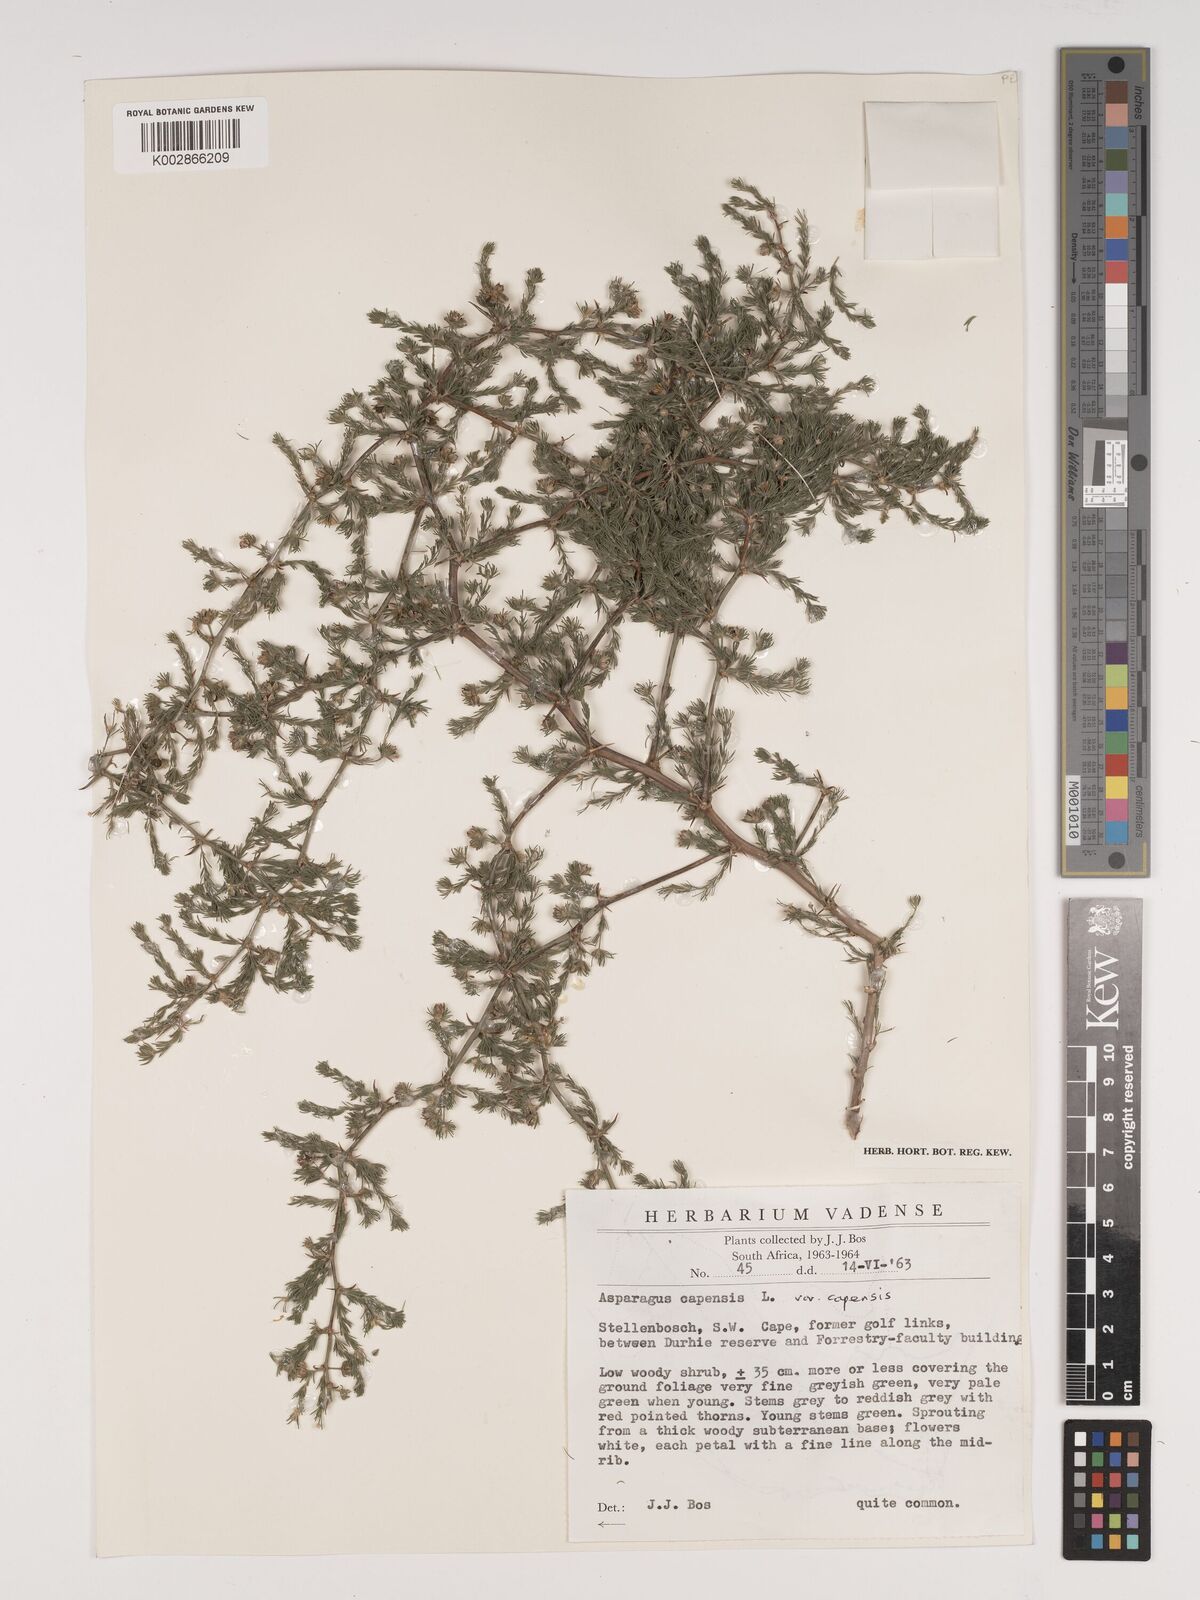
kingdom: Plantae
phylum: Tracheophyta
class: Liliopsida
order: Asparagales
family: Asparagaceae
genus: Asparagus
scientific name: Asparagus capensis
